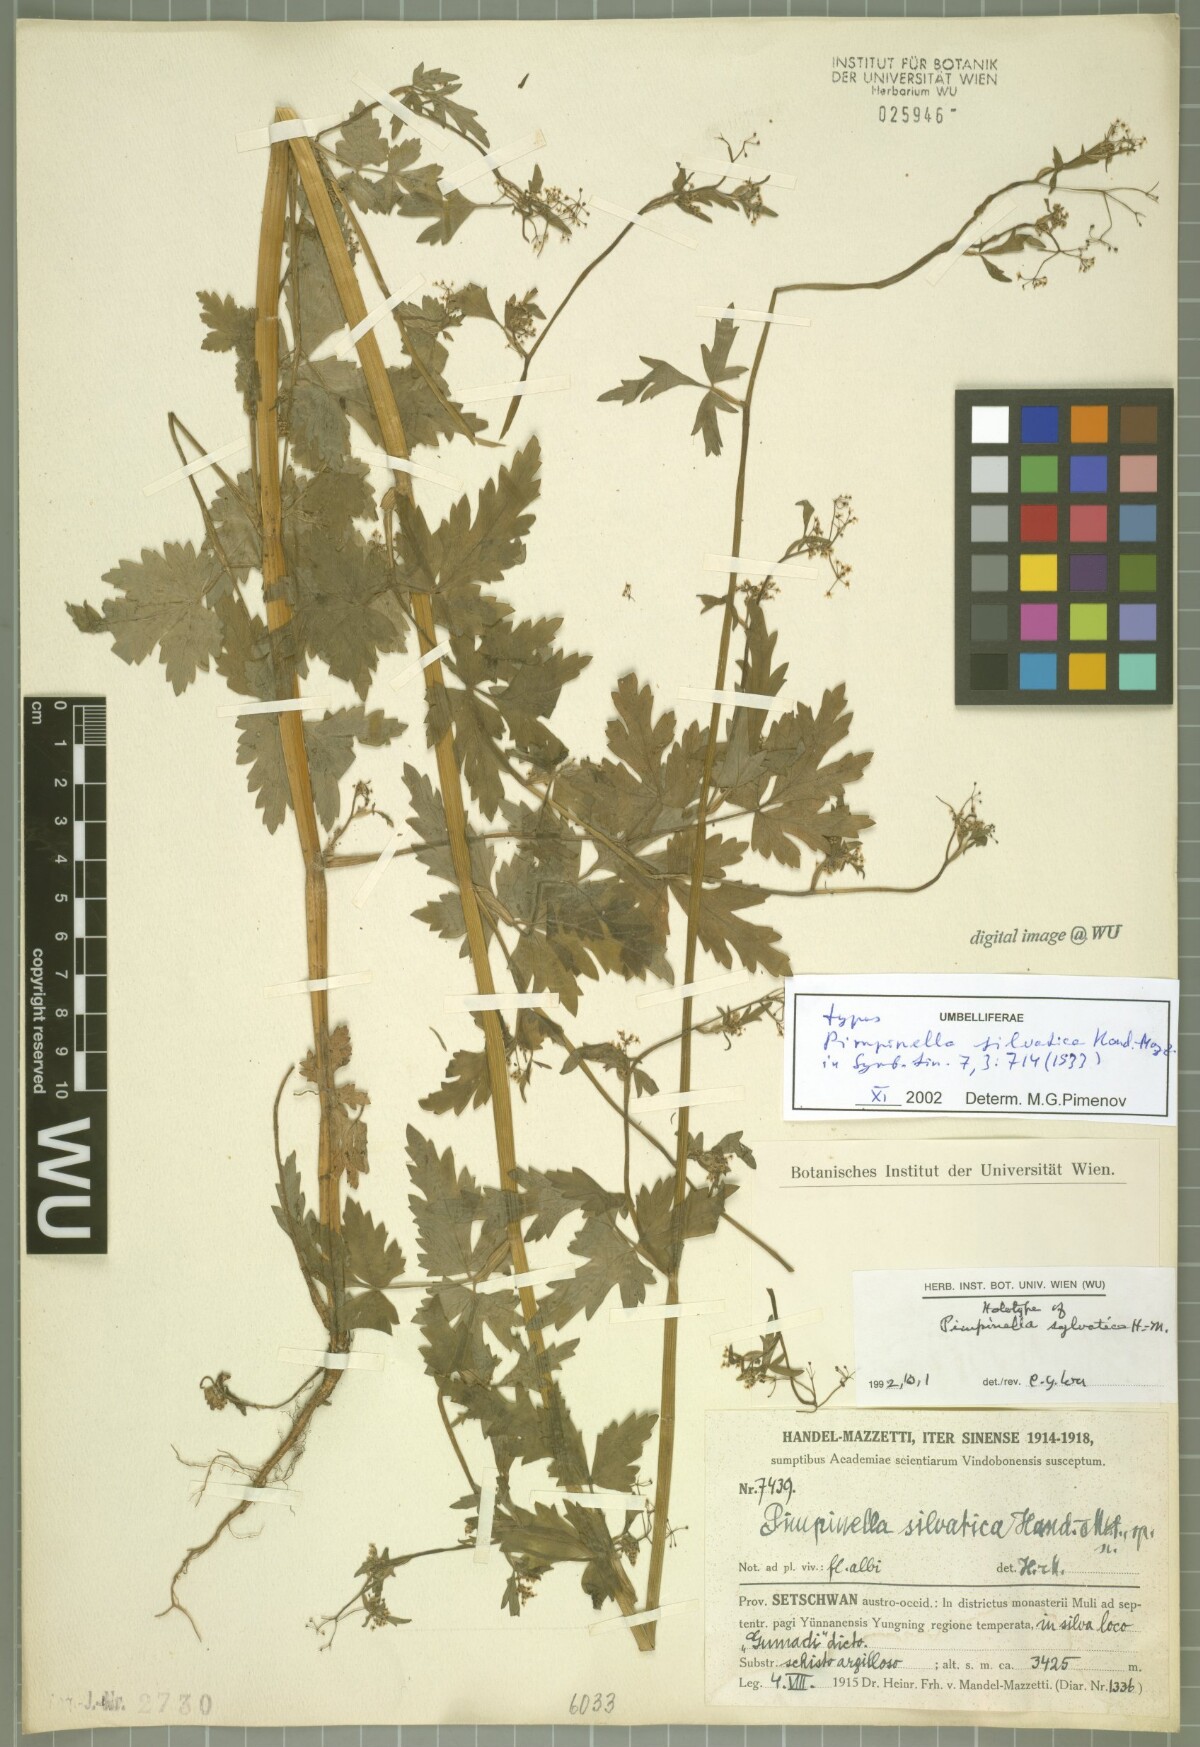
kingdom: Plantae
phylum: Tracheophyta
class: Magnoliopsida
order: Apiales
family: Apiaceae
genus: Pimpinella
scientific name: Pimpinella silvatica
